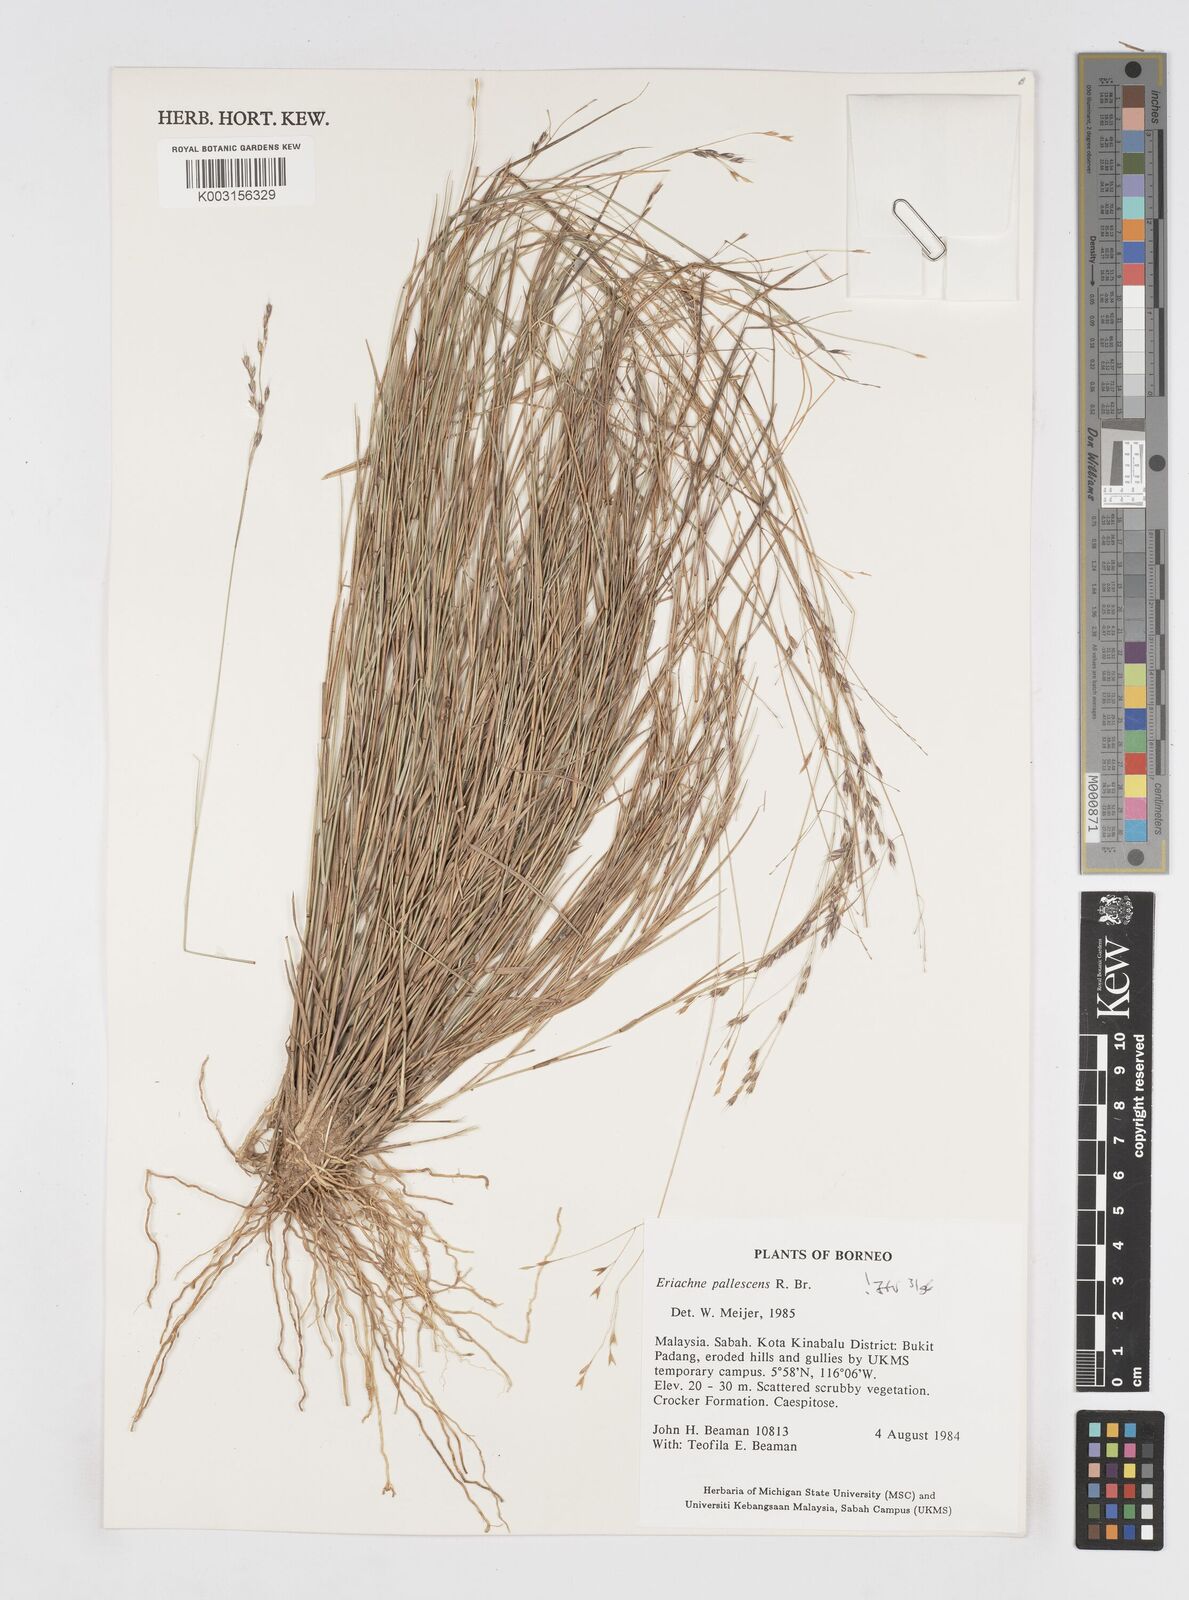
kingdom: Plantae
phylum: Tracheophyta
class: Liliopsida
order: Poales
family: Poaceae
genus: Eriachne
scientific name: Eriachne pallescens
